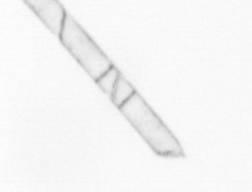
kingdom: Chromista
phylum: Ochrophyta
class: Bacillariophyceae
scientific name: Bacillariophyceae
